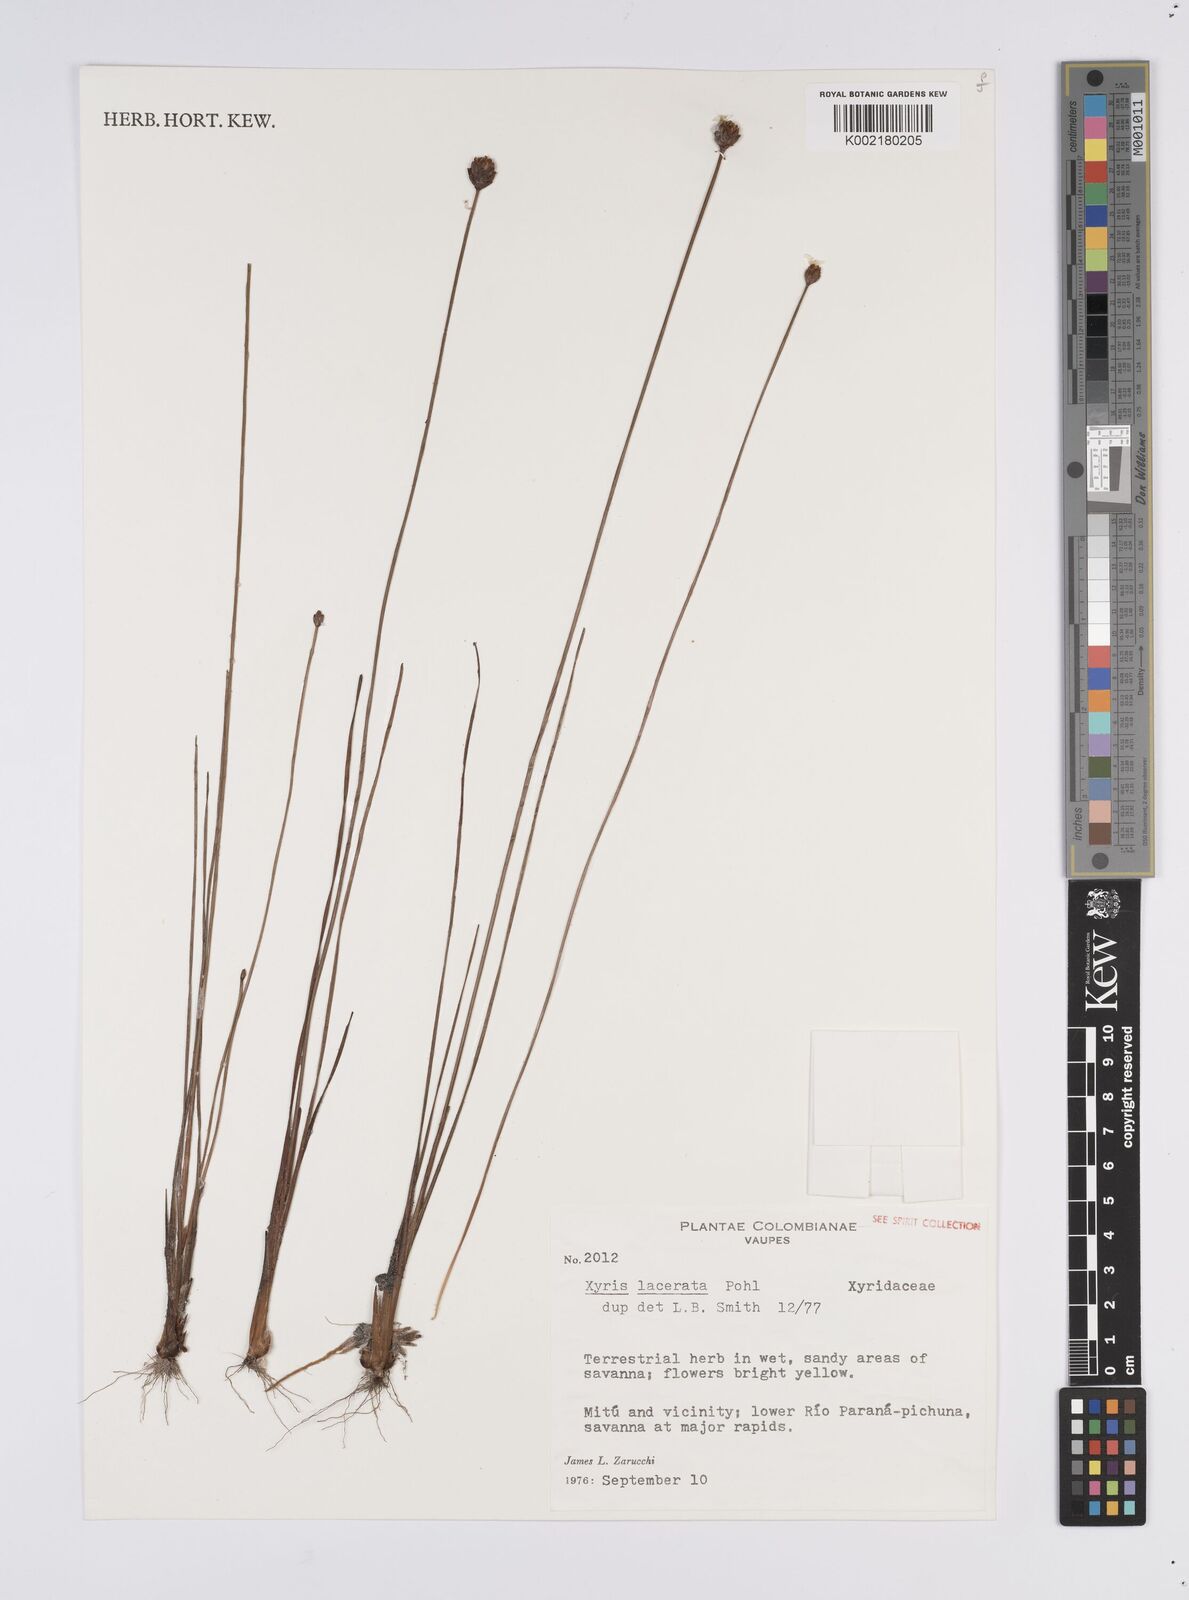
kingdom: Plantae
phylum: Tracheophyta
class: Liliopsida
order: Poales
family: Xyridaceae
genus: Xyris
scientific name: Xyris lacerata
